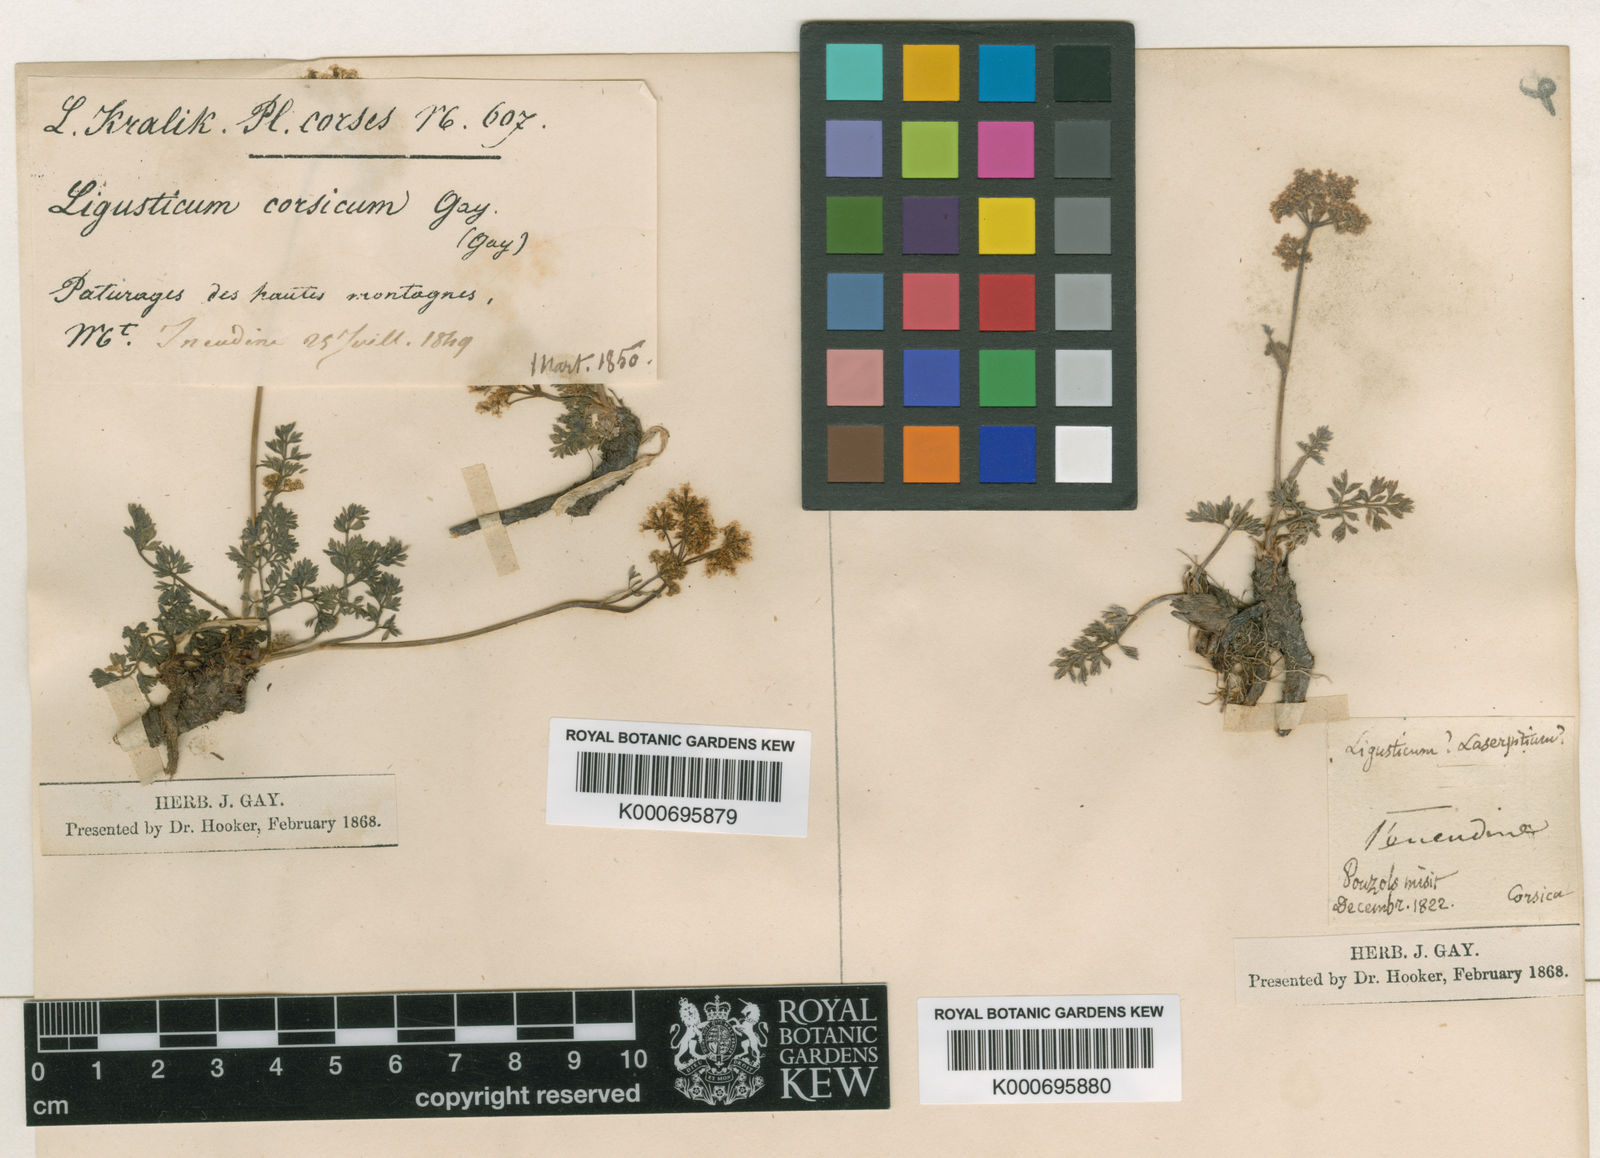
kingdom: Plantae
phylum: Tracheophyta
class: Magnoliopsida
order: Apiales
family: Apiaceae
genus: Mutellina
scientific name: Mutellina adonidifolia
